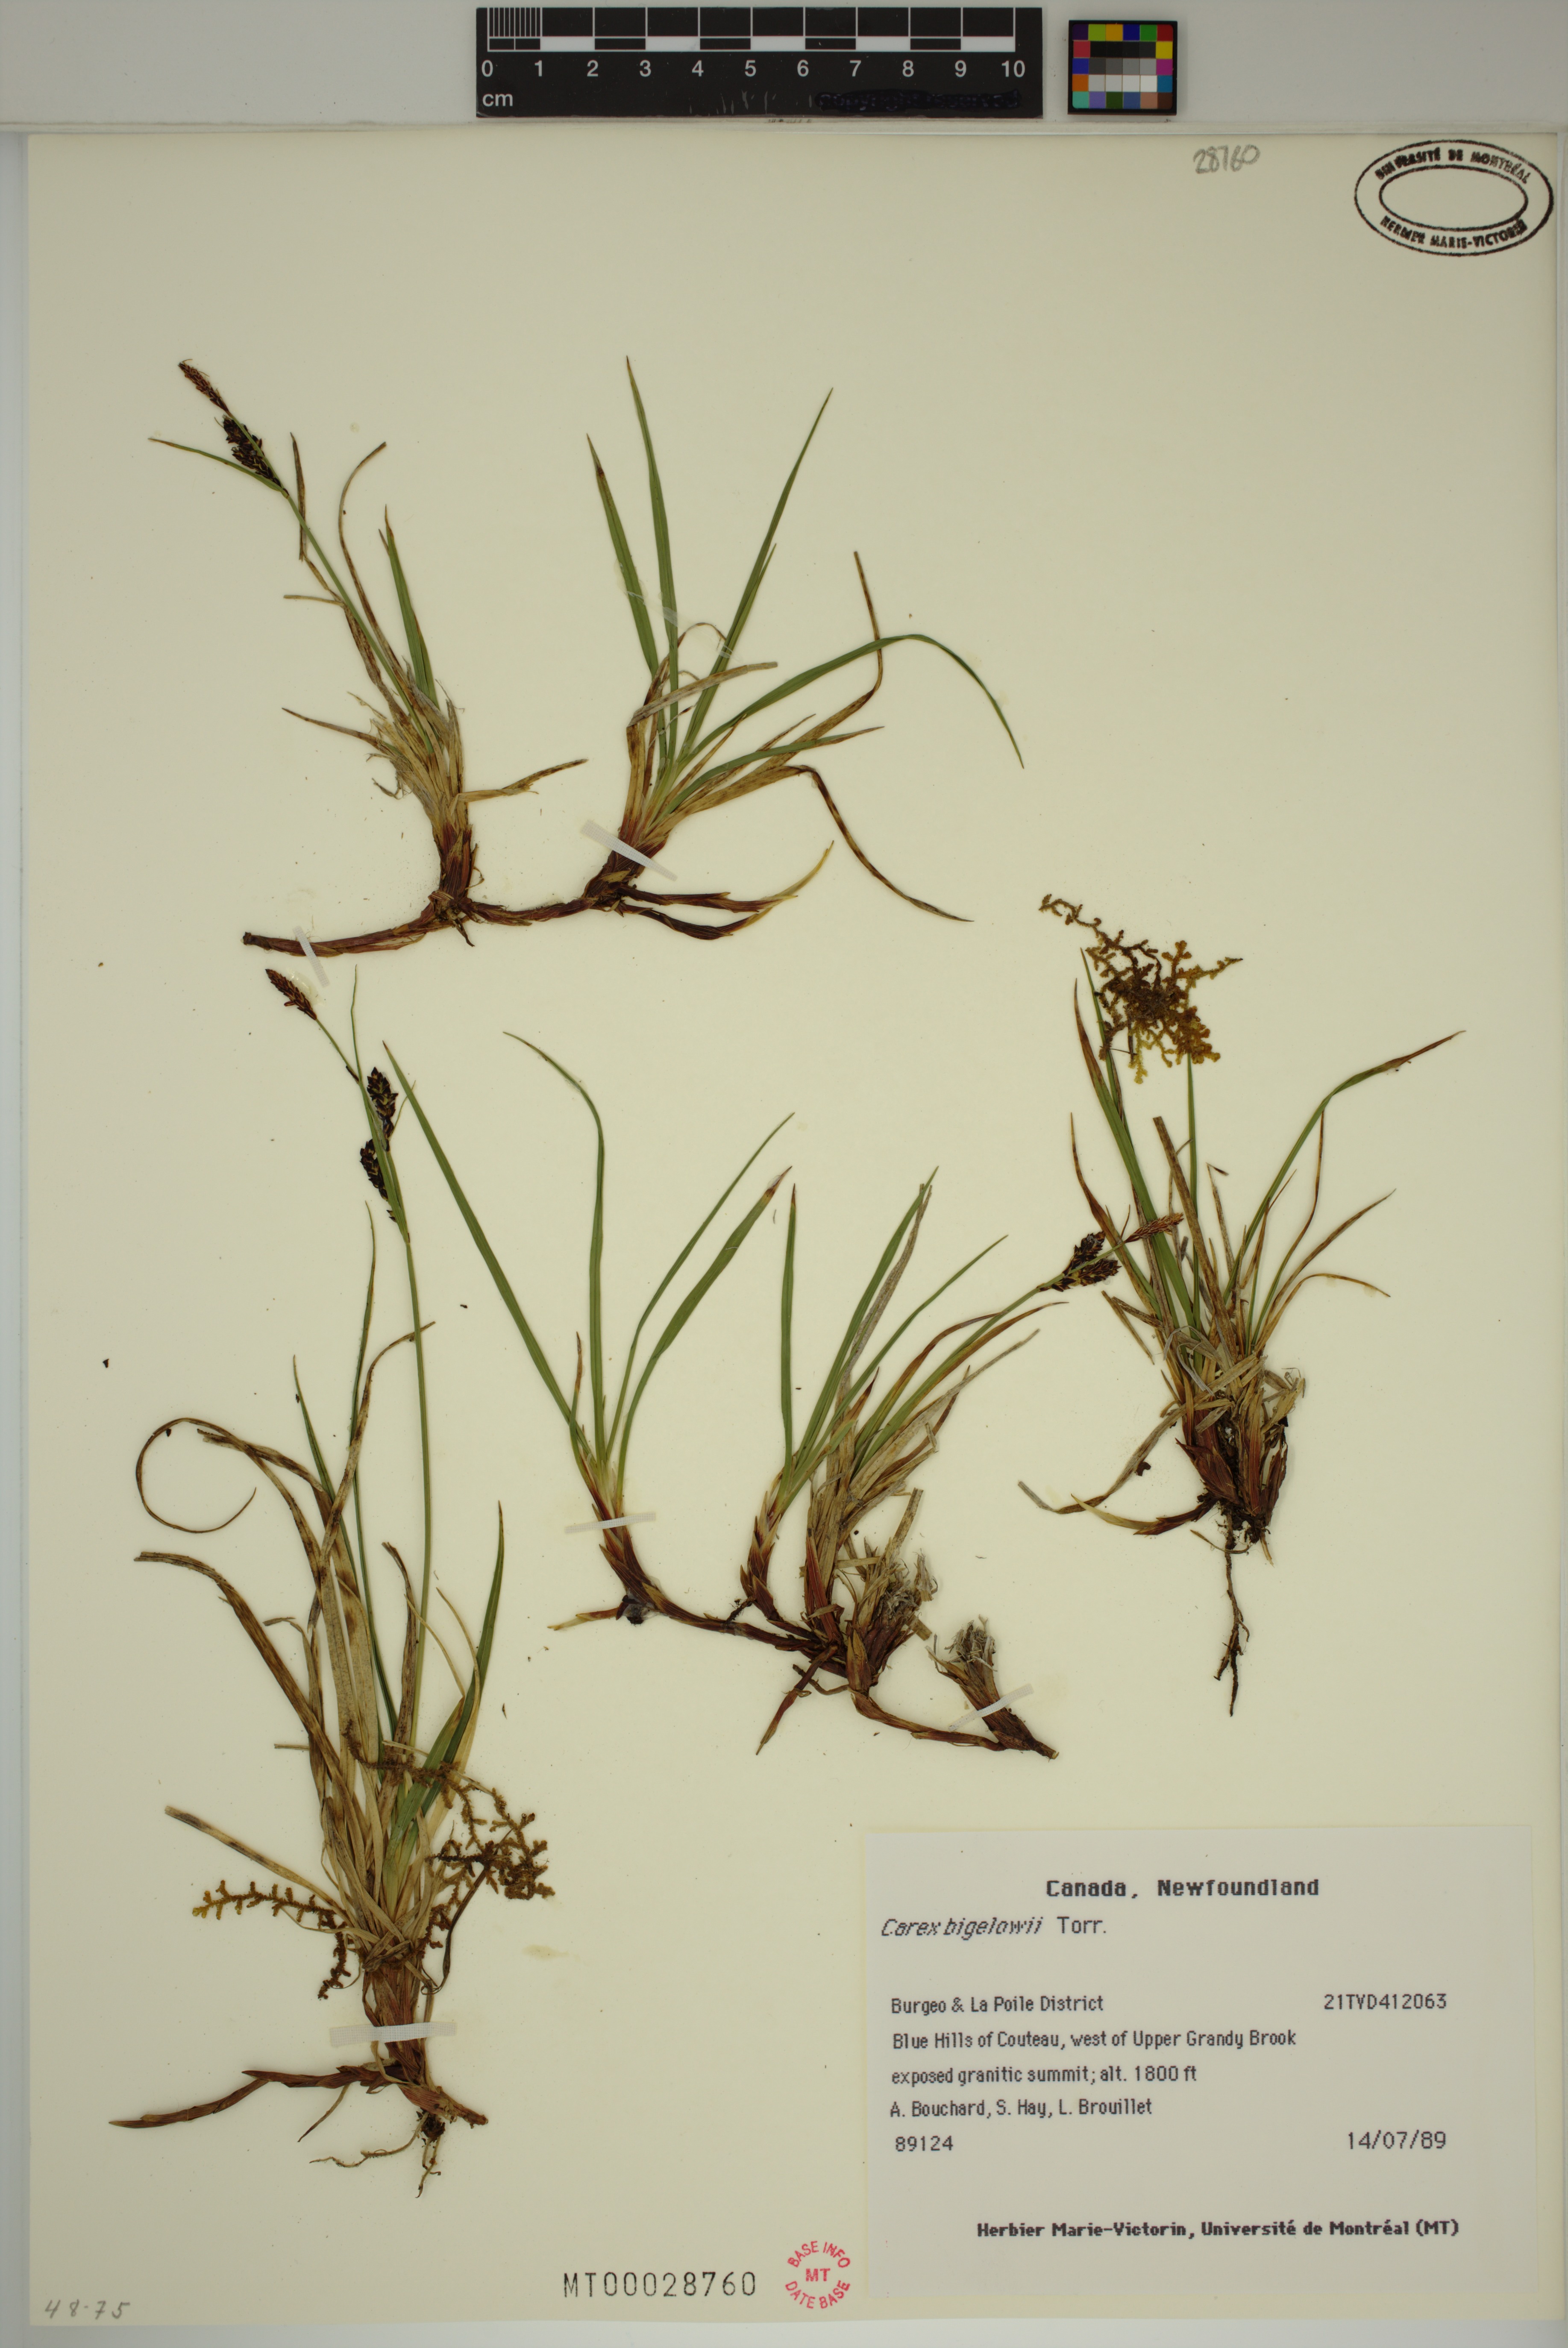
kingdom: Plantae
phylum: Tracheophyta
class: Liliopsida
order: Poales
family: Cyperaceae
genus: Carex
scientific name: Carex bigelowii
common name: Stiff sedge
